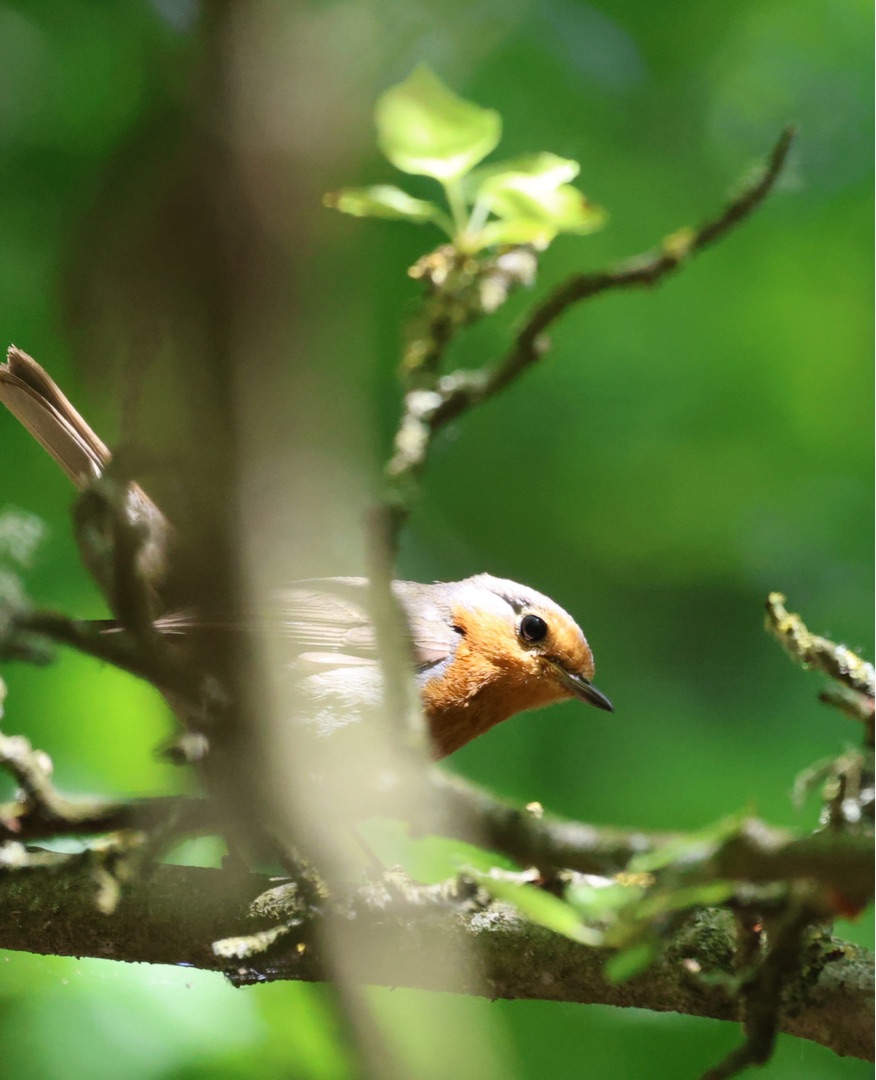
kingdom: Animalia
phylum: Chordata
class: Aves
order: Passeriformes
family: Muscicapidae
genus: Erithacus
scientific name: Erithacus rubecula
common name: Rødhals/rødkælk
